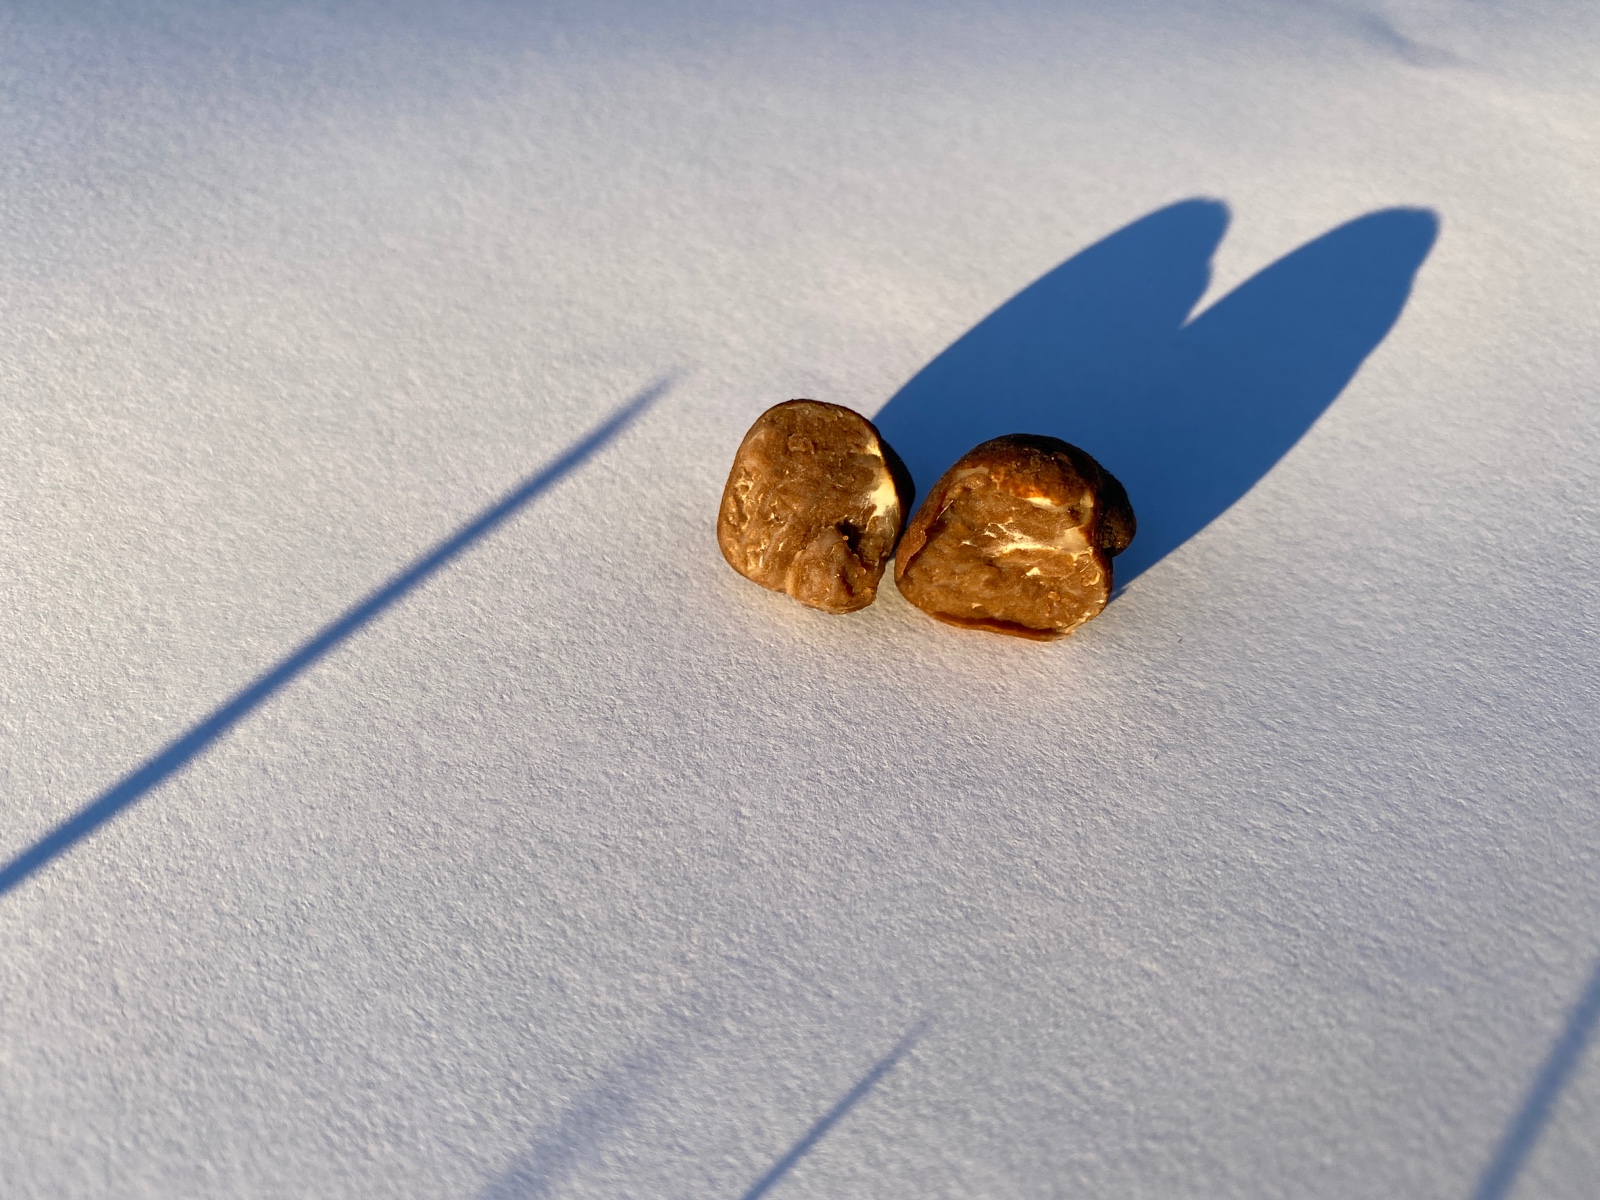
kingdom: Fungi
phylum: Ascomycota
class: Pezizomycetes
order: Pezizales
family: Tuberaceae
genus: Tuber
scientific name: Tuber rufum
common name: rødbrun trøffel
